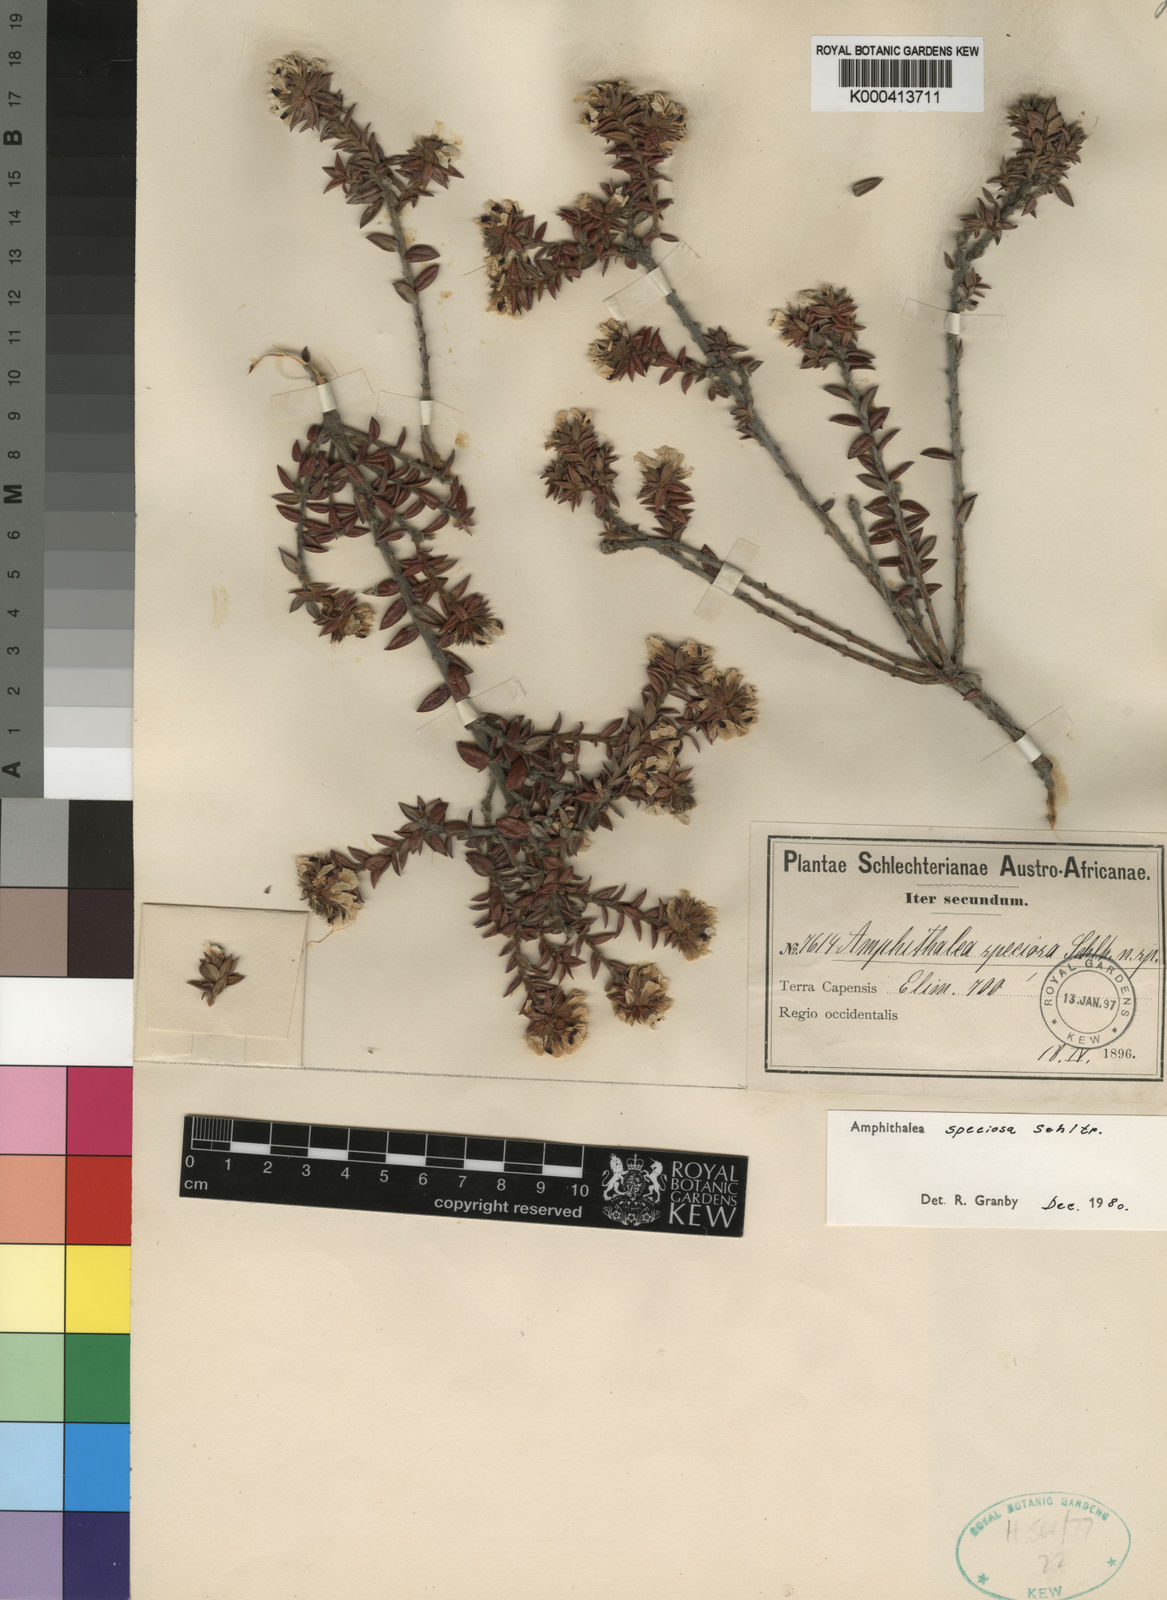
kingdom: Plantae
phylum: Tracheophyta
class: Magnoliopsida
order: Fabales
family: Fabaceae
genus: Amphithalea
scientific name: Amphithalea speciosa
